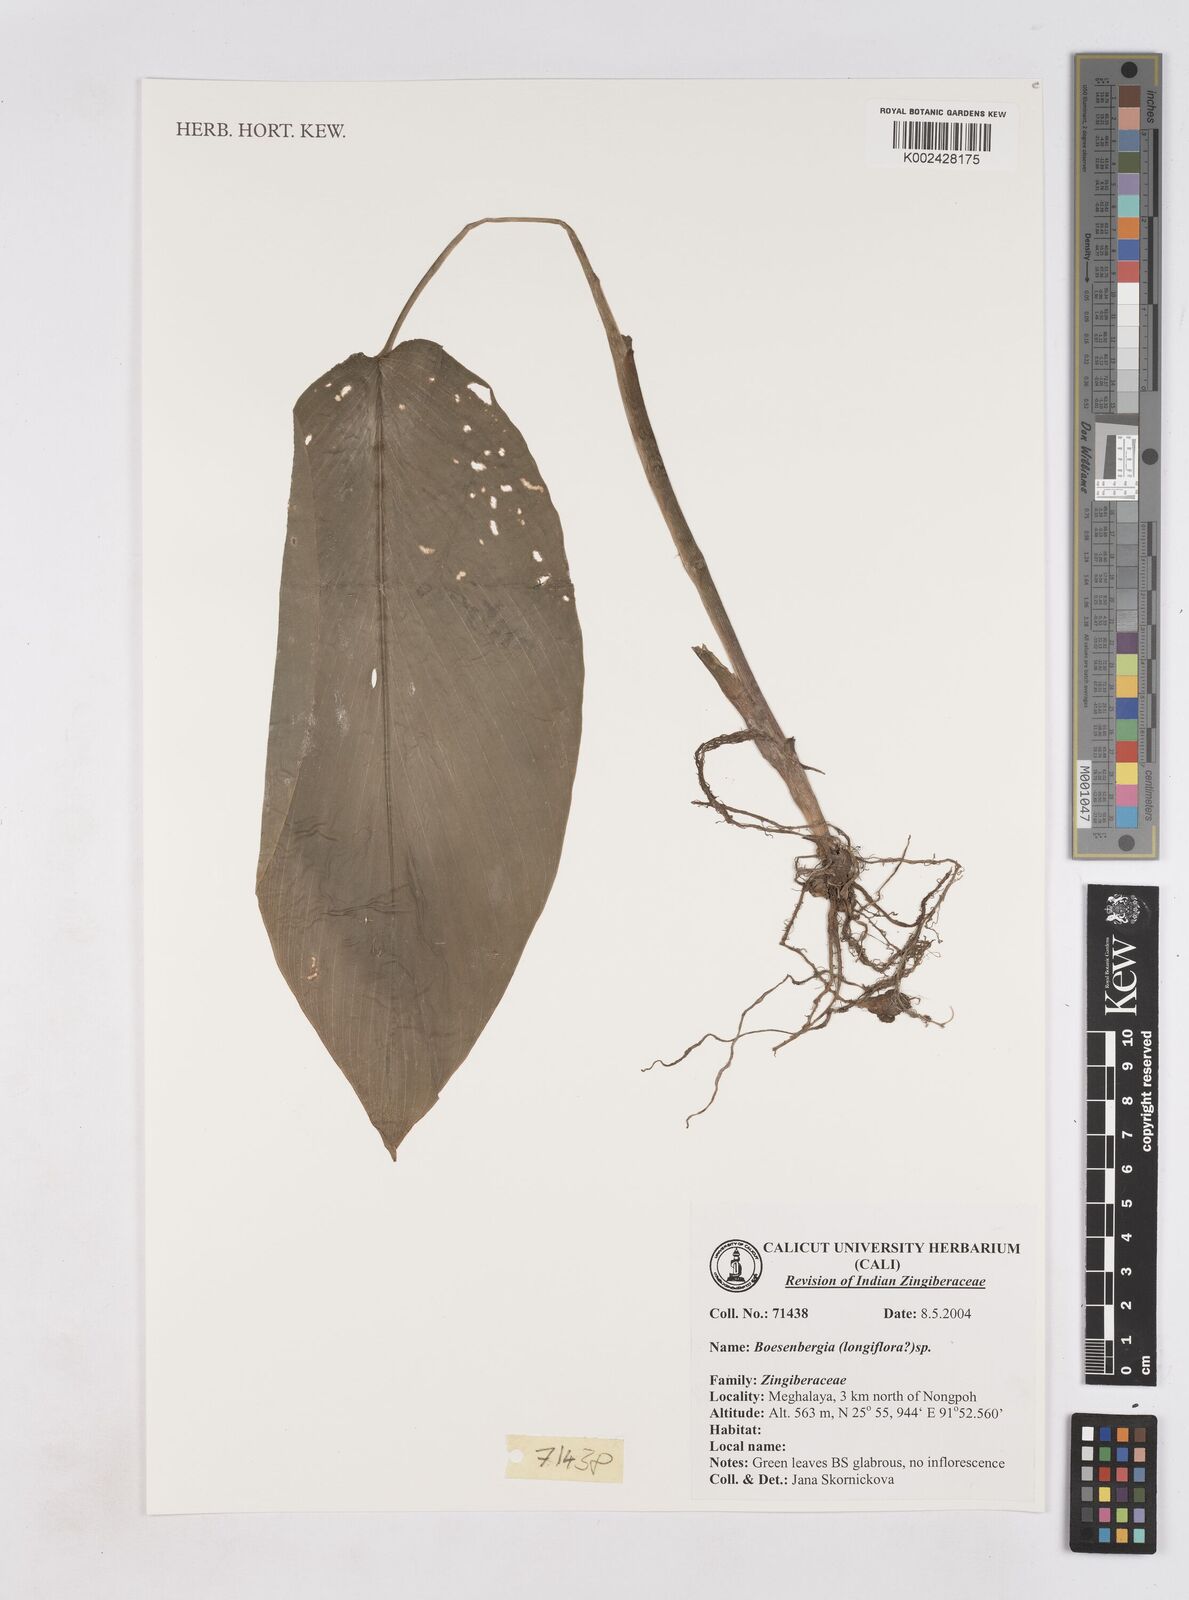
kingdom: Plantae
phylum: Tracheophyta
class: Liliopsida
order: Zingiberales
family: Zingiberaceae
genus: Boesenbergia
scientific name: Boesenbergia longiflora
